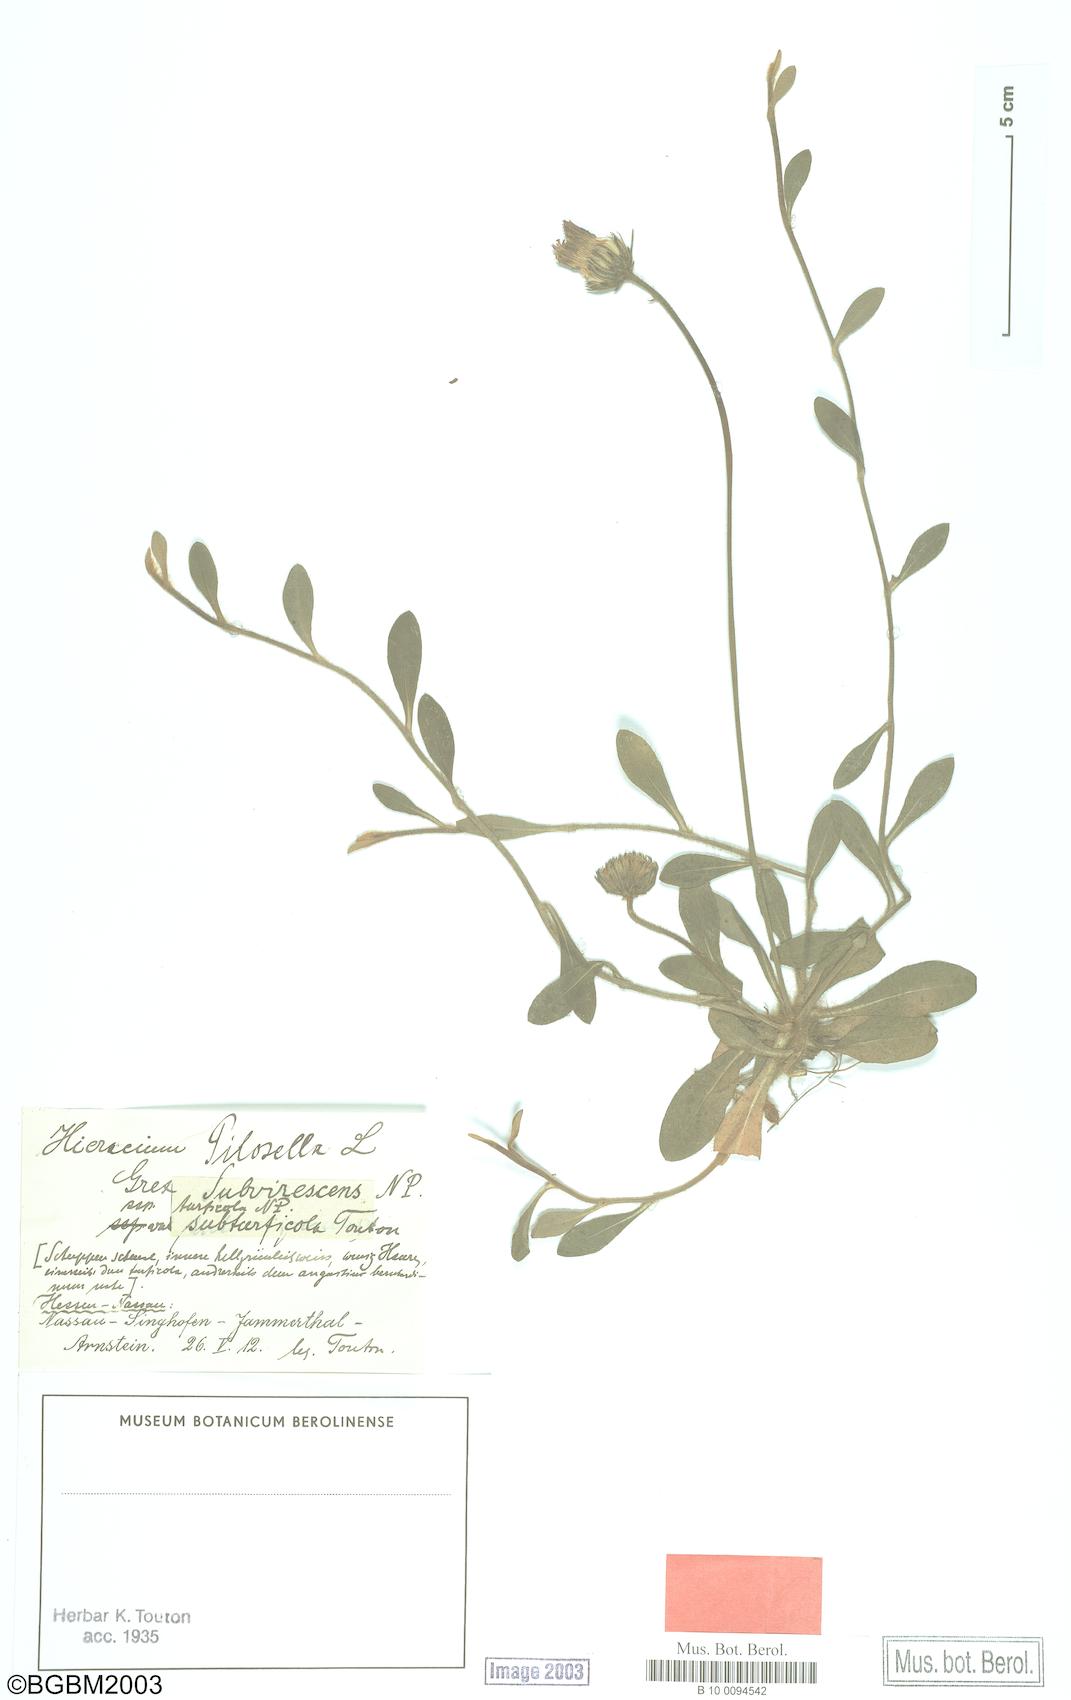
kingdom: Plantae
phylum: Tracheophyta
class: Magnoliopsida
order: Asterales
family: Asteraceae
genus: Pilosella
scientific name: Pilosella officinarum
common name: Mouse-ear hawkweed
